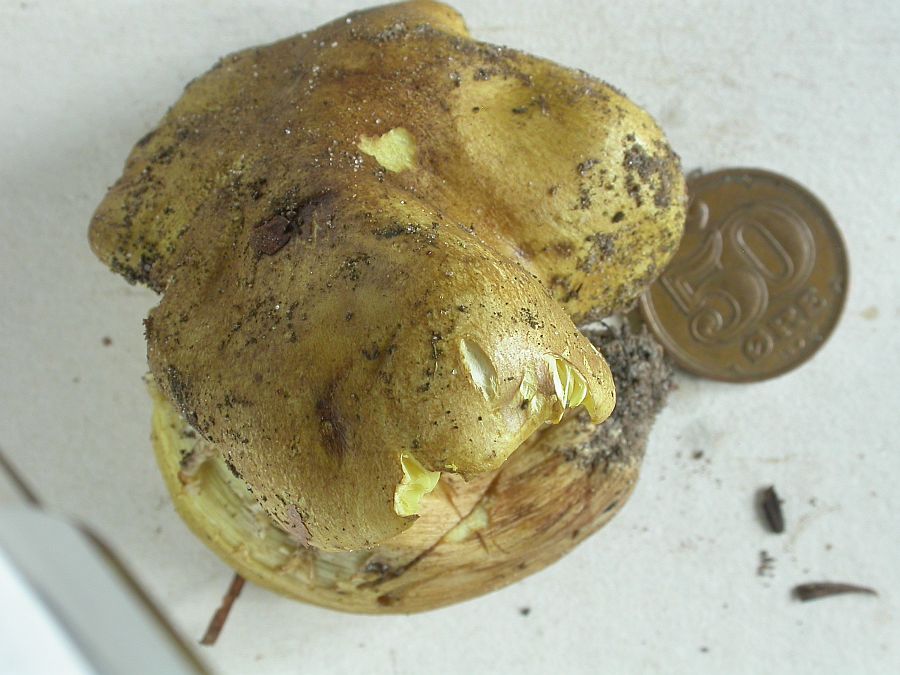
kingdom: Fungi
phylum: Basidiomycota
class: Agaricomycetes
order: Agaricales
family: Tricholomataceae
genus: Tricholoma
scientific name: Tricholoma equestre
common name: ægte ridderhat
